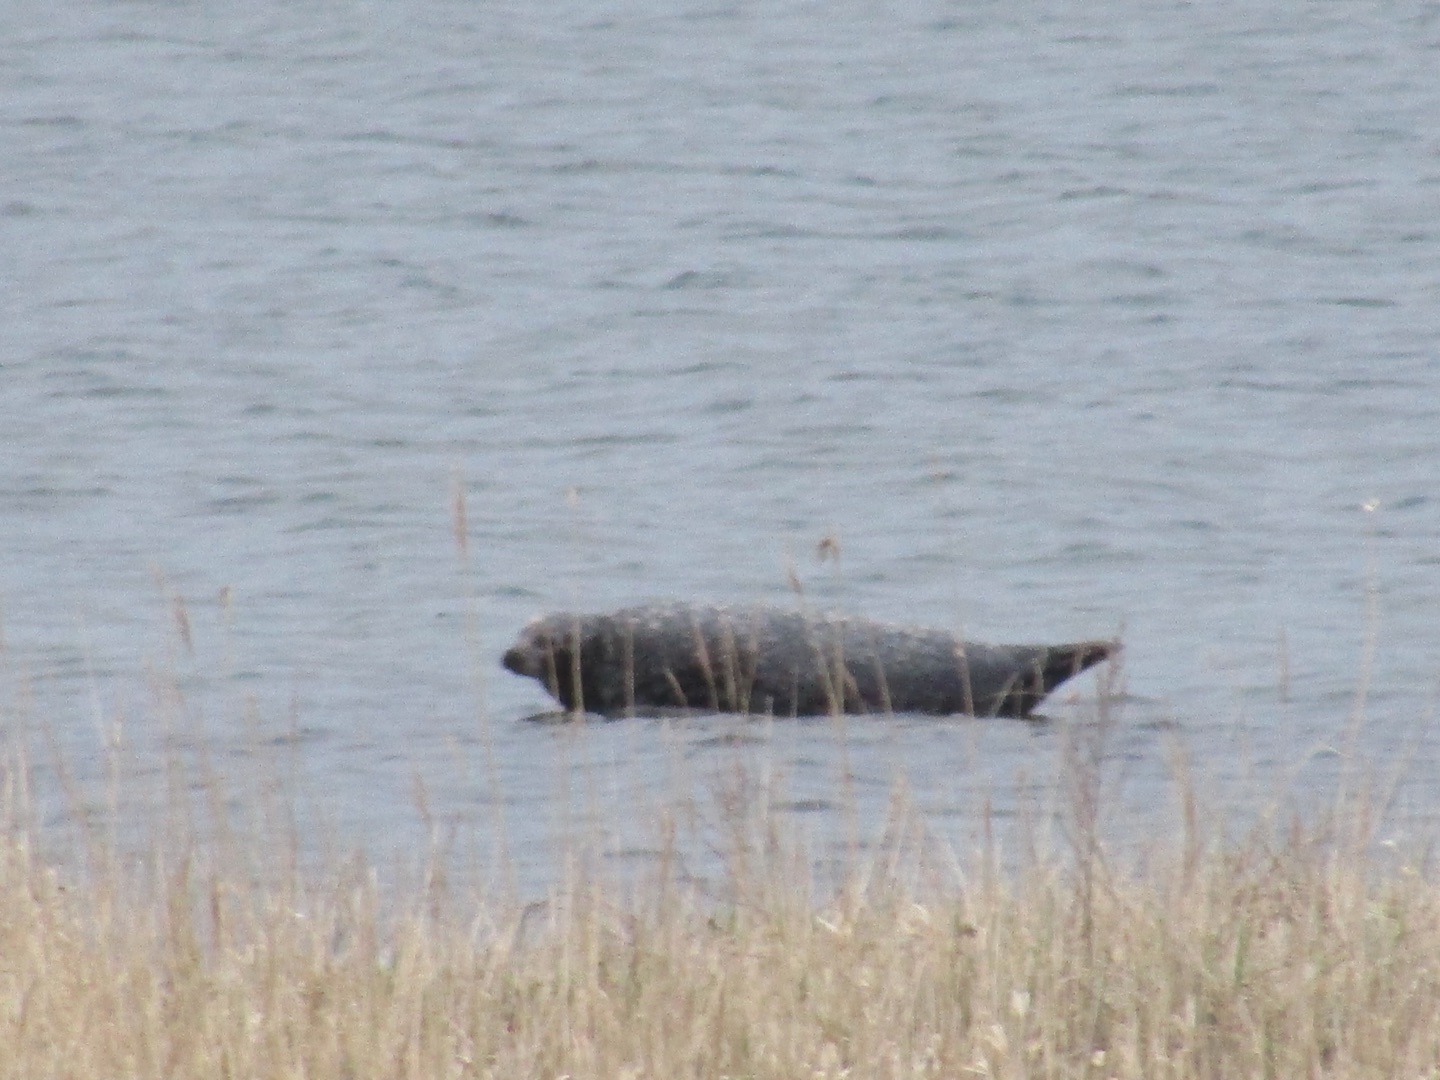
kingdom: Animalia
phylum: Chordata
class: Mammalia
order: Carnivora
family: Phocidae
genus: Phoca
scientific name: Phoca vitulina
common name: Spættet sæl
